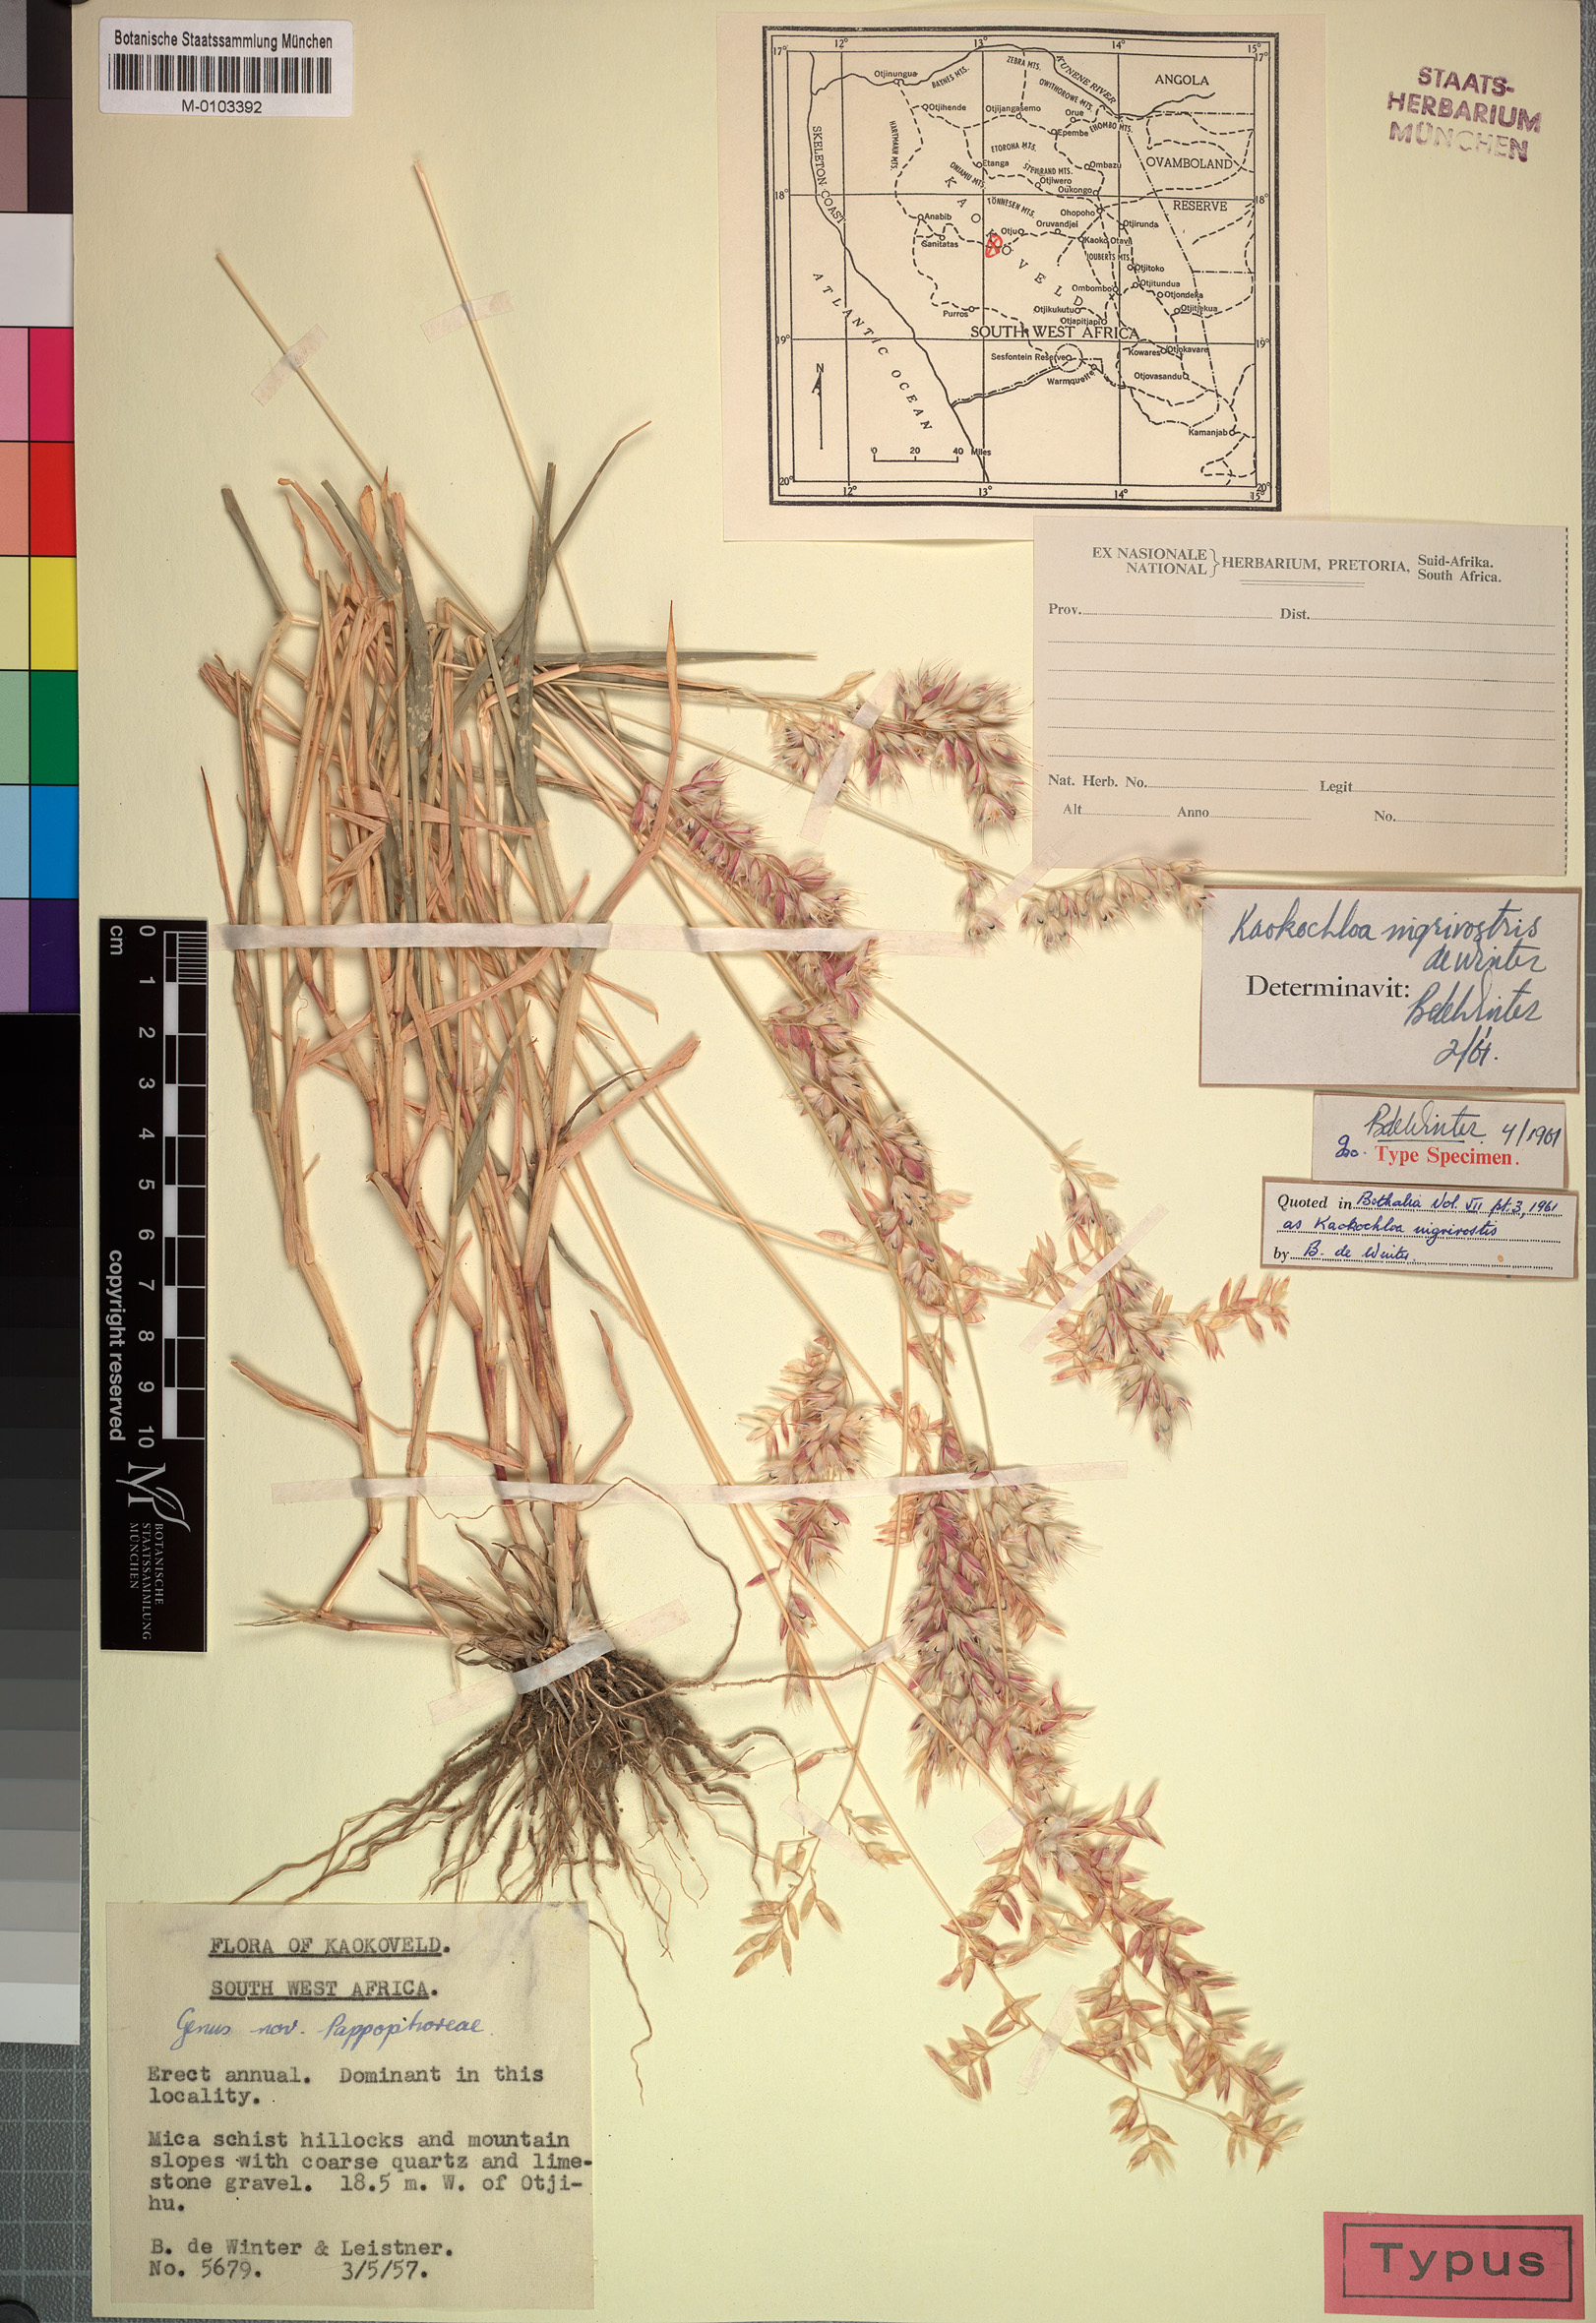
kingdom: Plantae
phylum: Tracheophyta
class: Liliopsida
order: Poales
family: Poaceae
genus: Kaokochloa
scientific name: Kaokochloa nigrirostris
